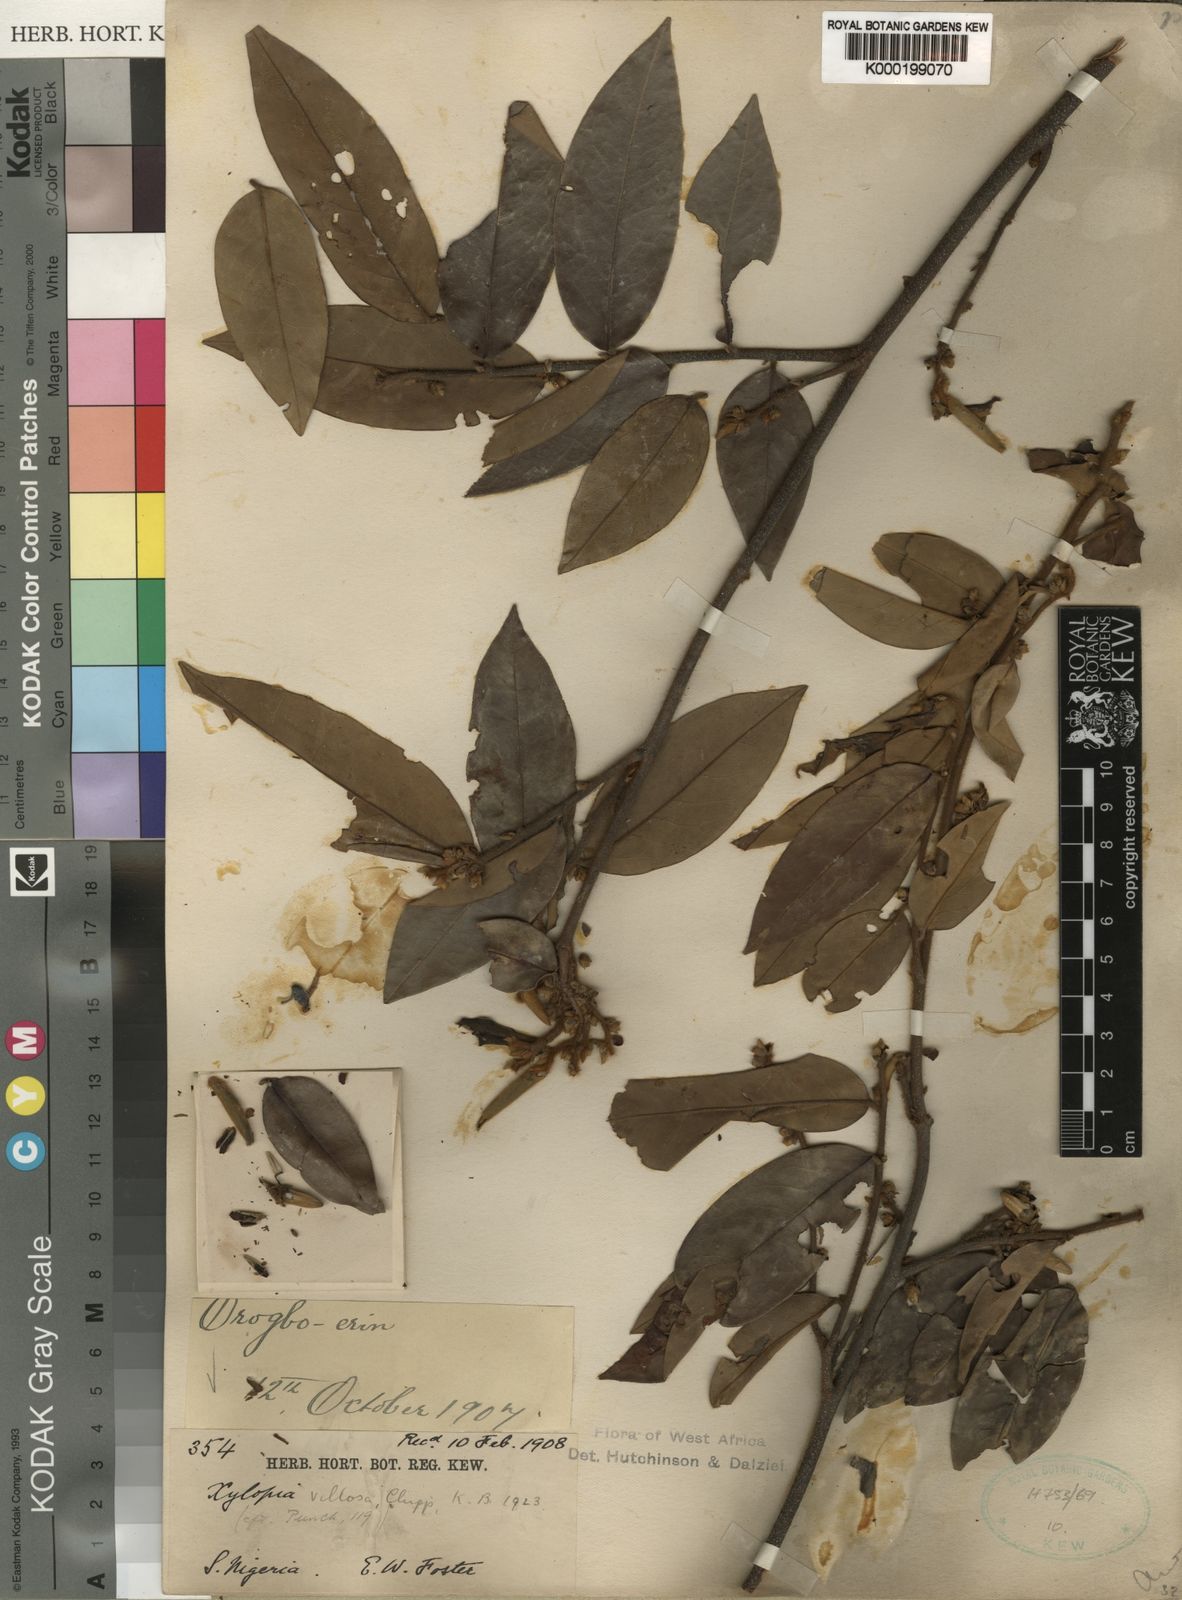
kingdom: Plantae
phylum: Tracheophyta
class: Magnoliopsida
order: Magnoliales
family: Annonaceae
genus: Xylopia
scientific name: Xylopia villosa
